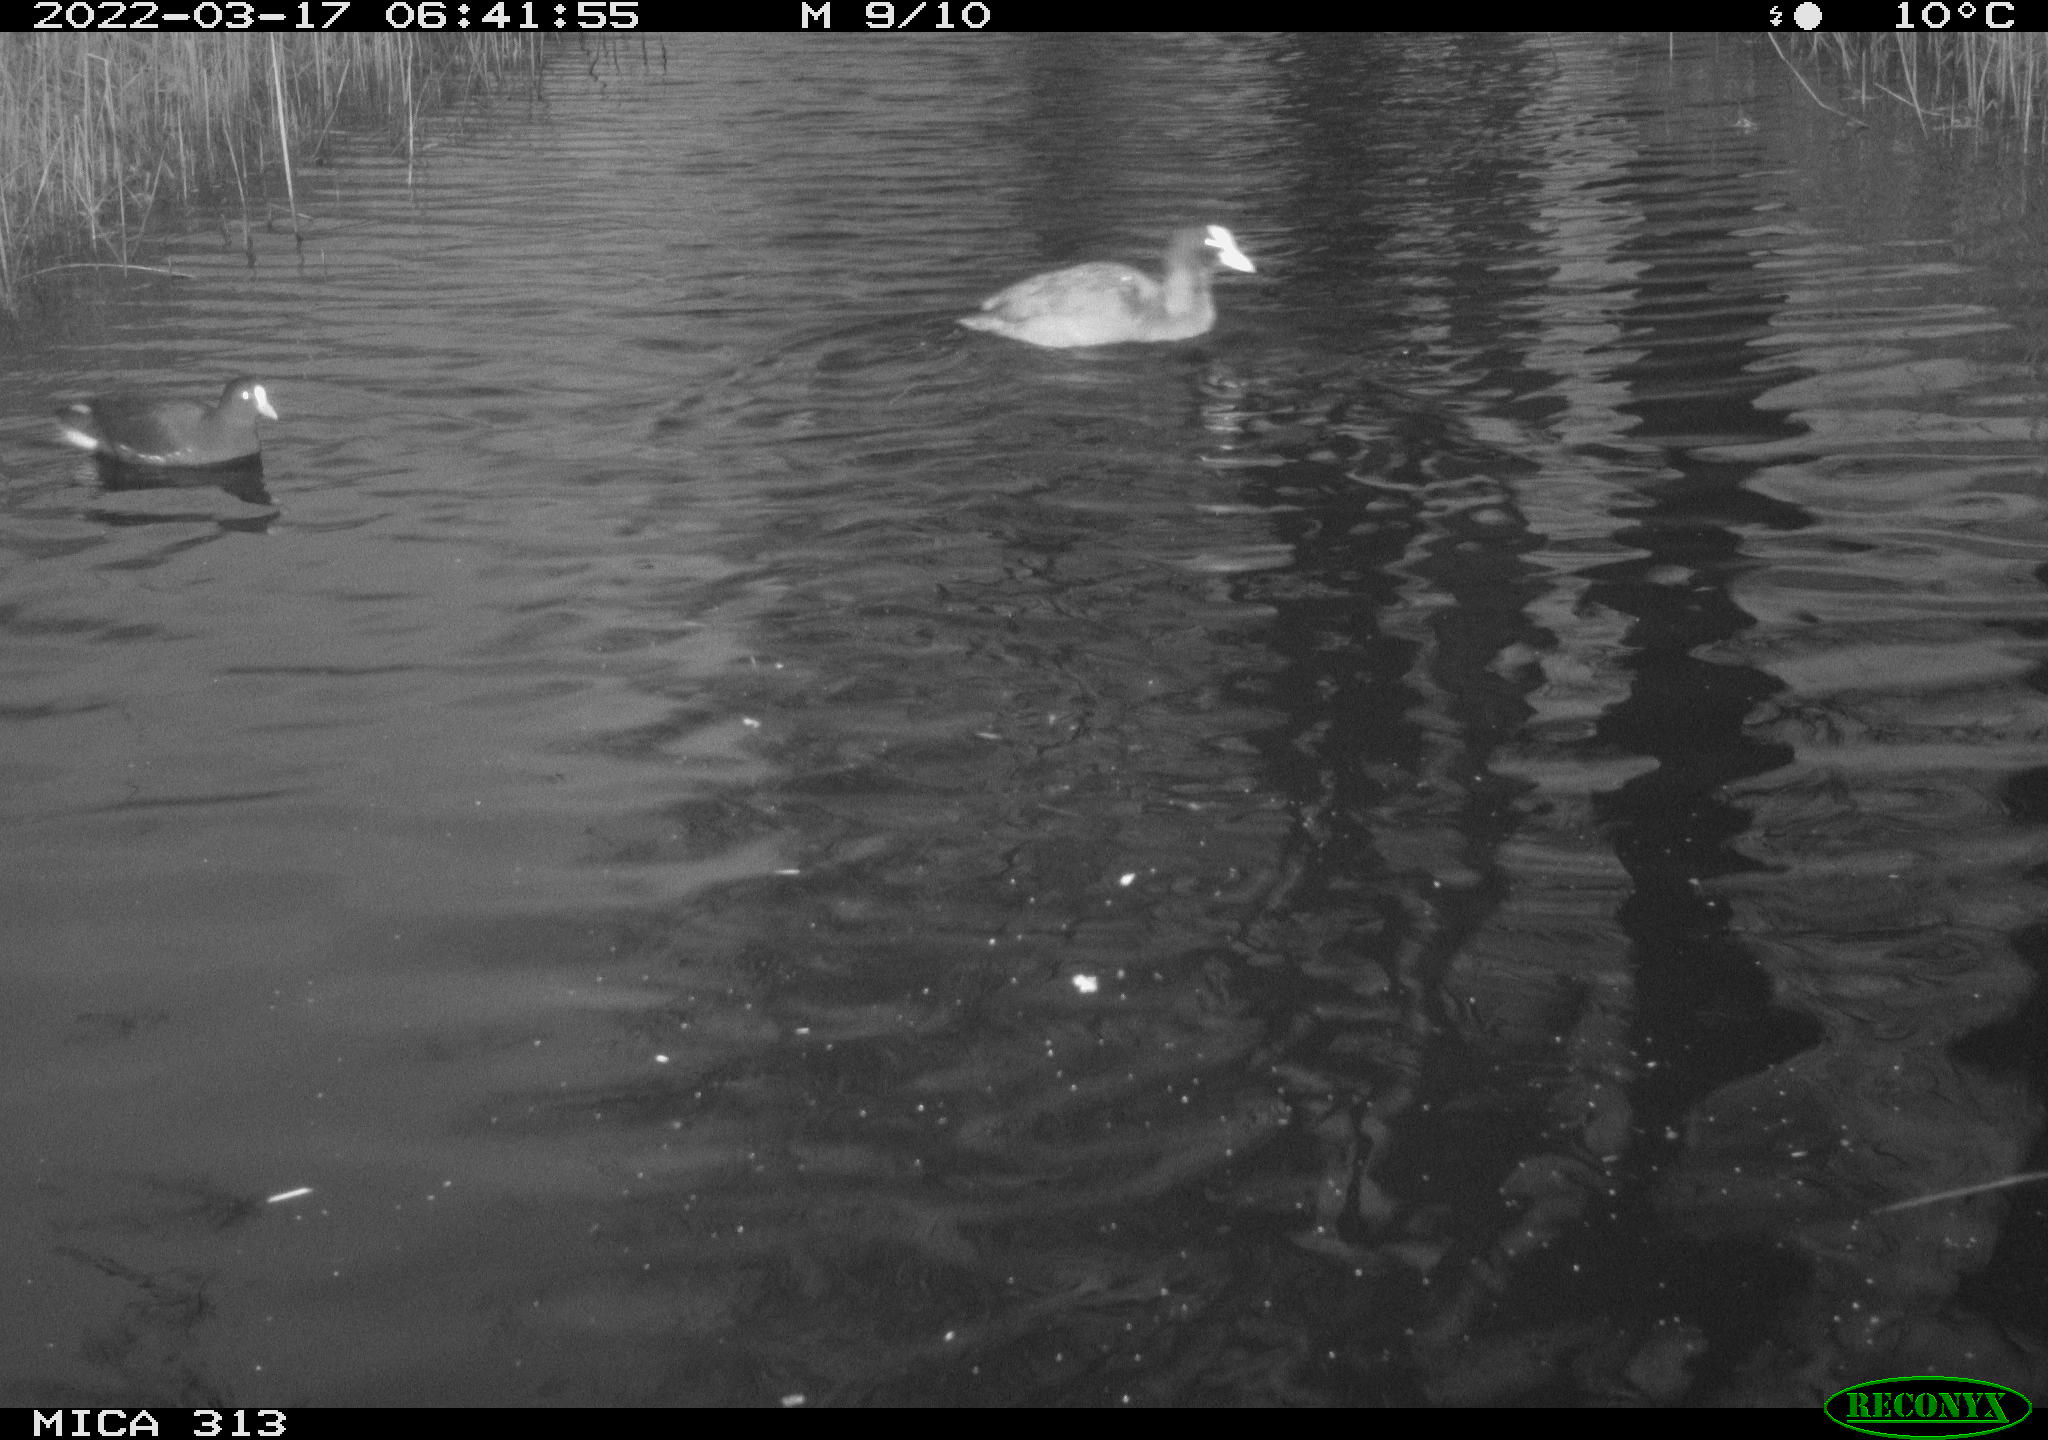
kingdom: Animalia
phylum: Chordata
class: Aves
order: Gruiformes
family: Rallidae
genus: Fulica
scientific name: Fulica atra
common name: Eurasian coot
